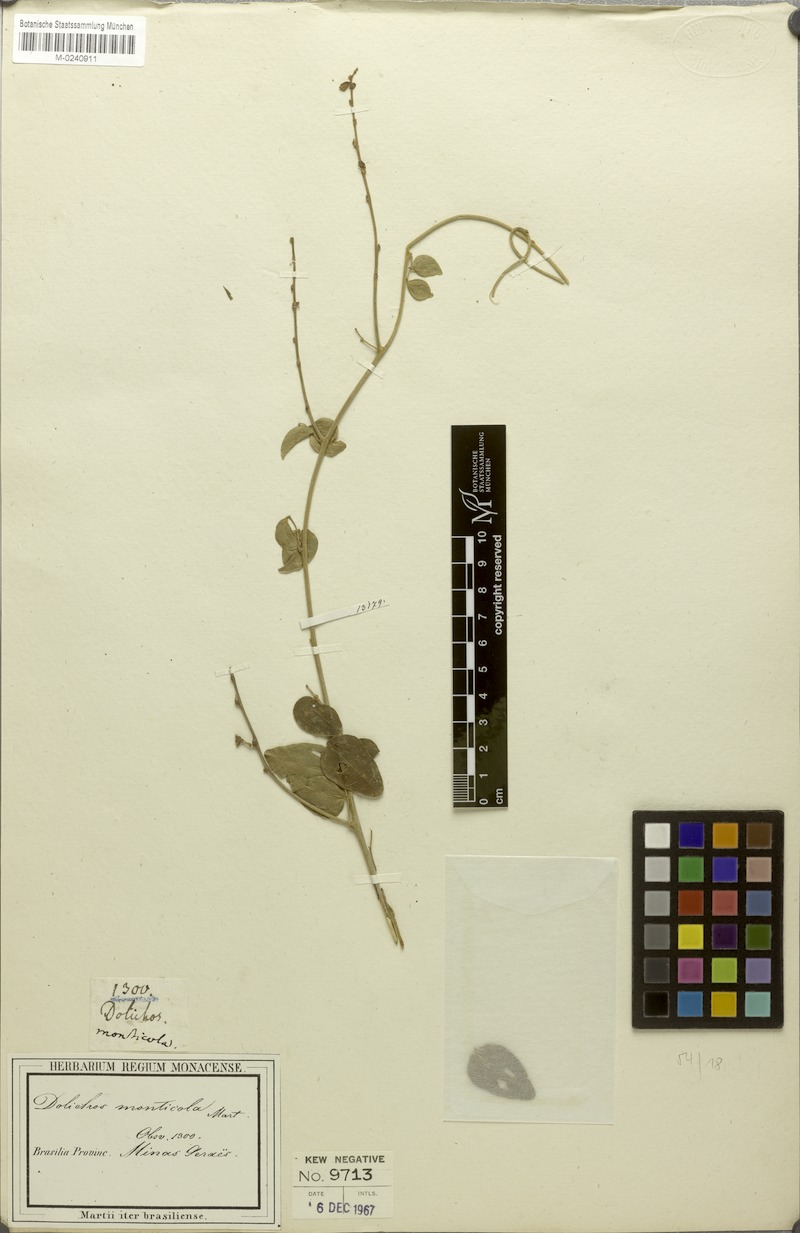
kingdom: Plantae
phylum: Tracheophyta
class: Magnoliopsida
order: Fabales
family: Fabaceae
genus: Dolichopsis
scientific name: Dolichopsis monticola
